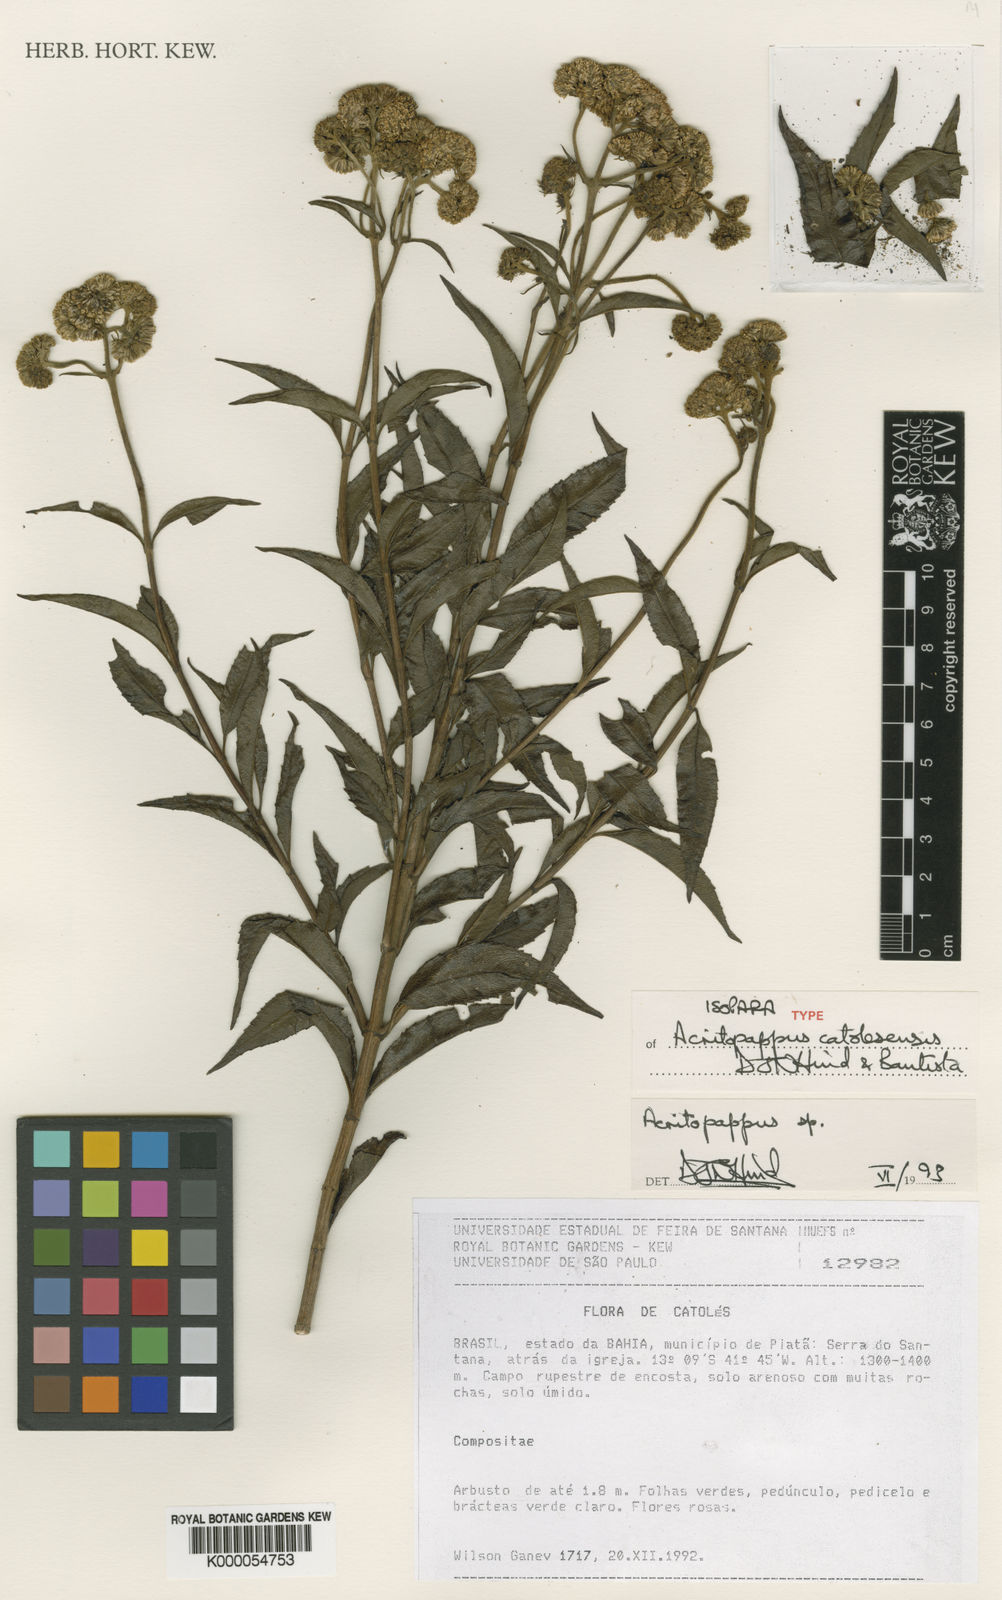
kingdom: Plantae
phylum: Tracheophyta
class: Magnoliopsida
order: Asterales
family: Asteraceae
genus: Acritopappus
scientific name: Acritopappus catolesensis
